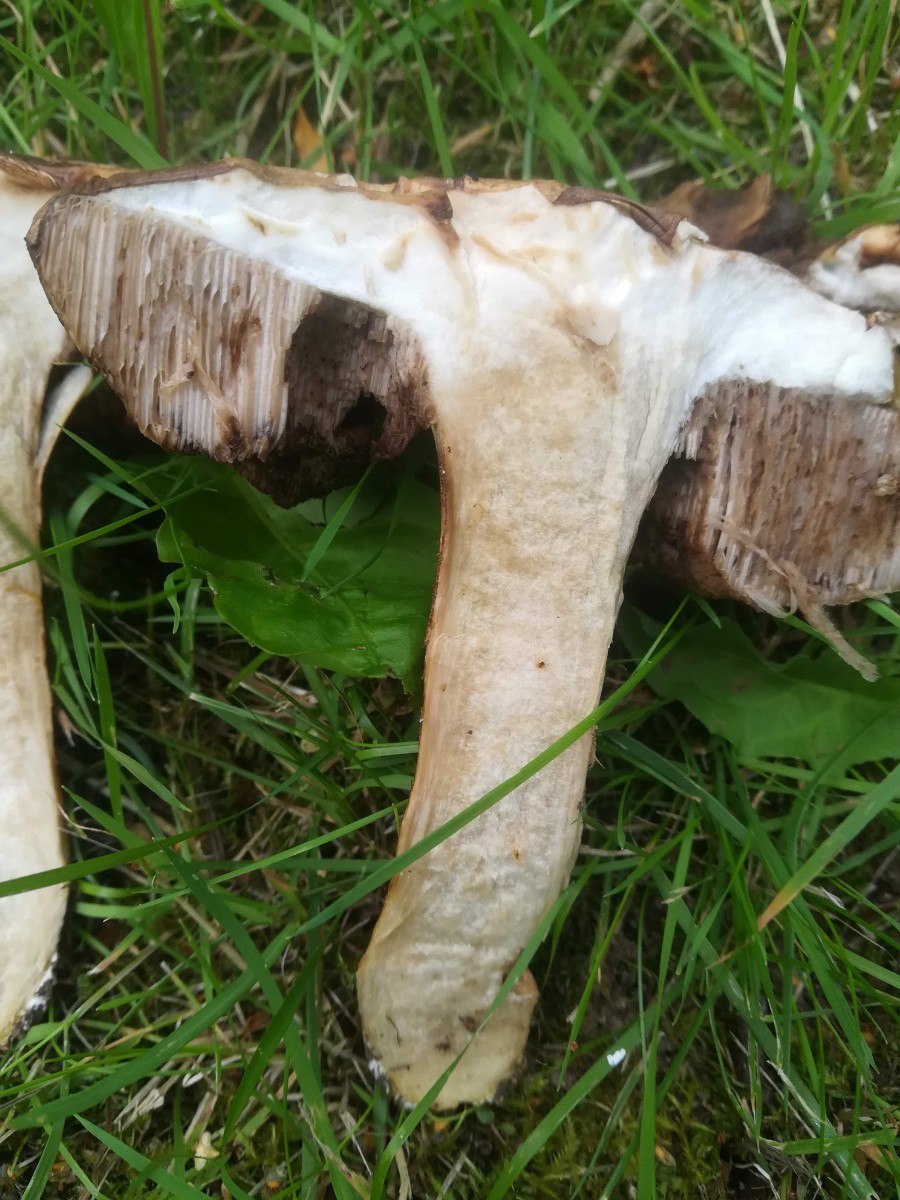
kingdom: Fungi
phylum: Basidiomycota
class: Agaricomycetes
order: Boletales
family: Boletaceae
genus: Leccinum
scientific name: Leccinum scabrum
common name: brun skælrørhat
